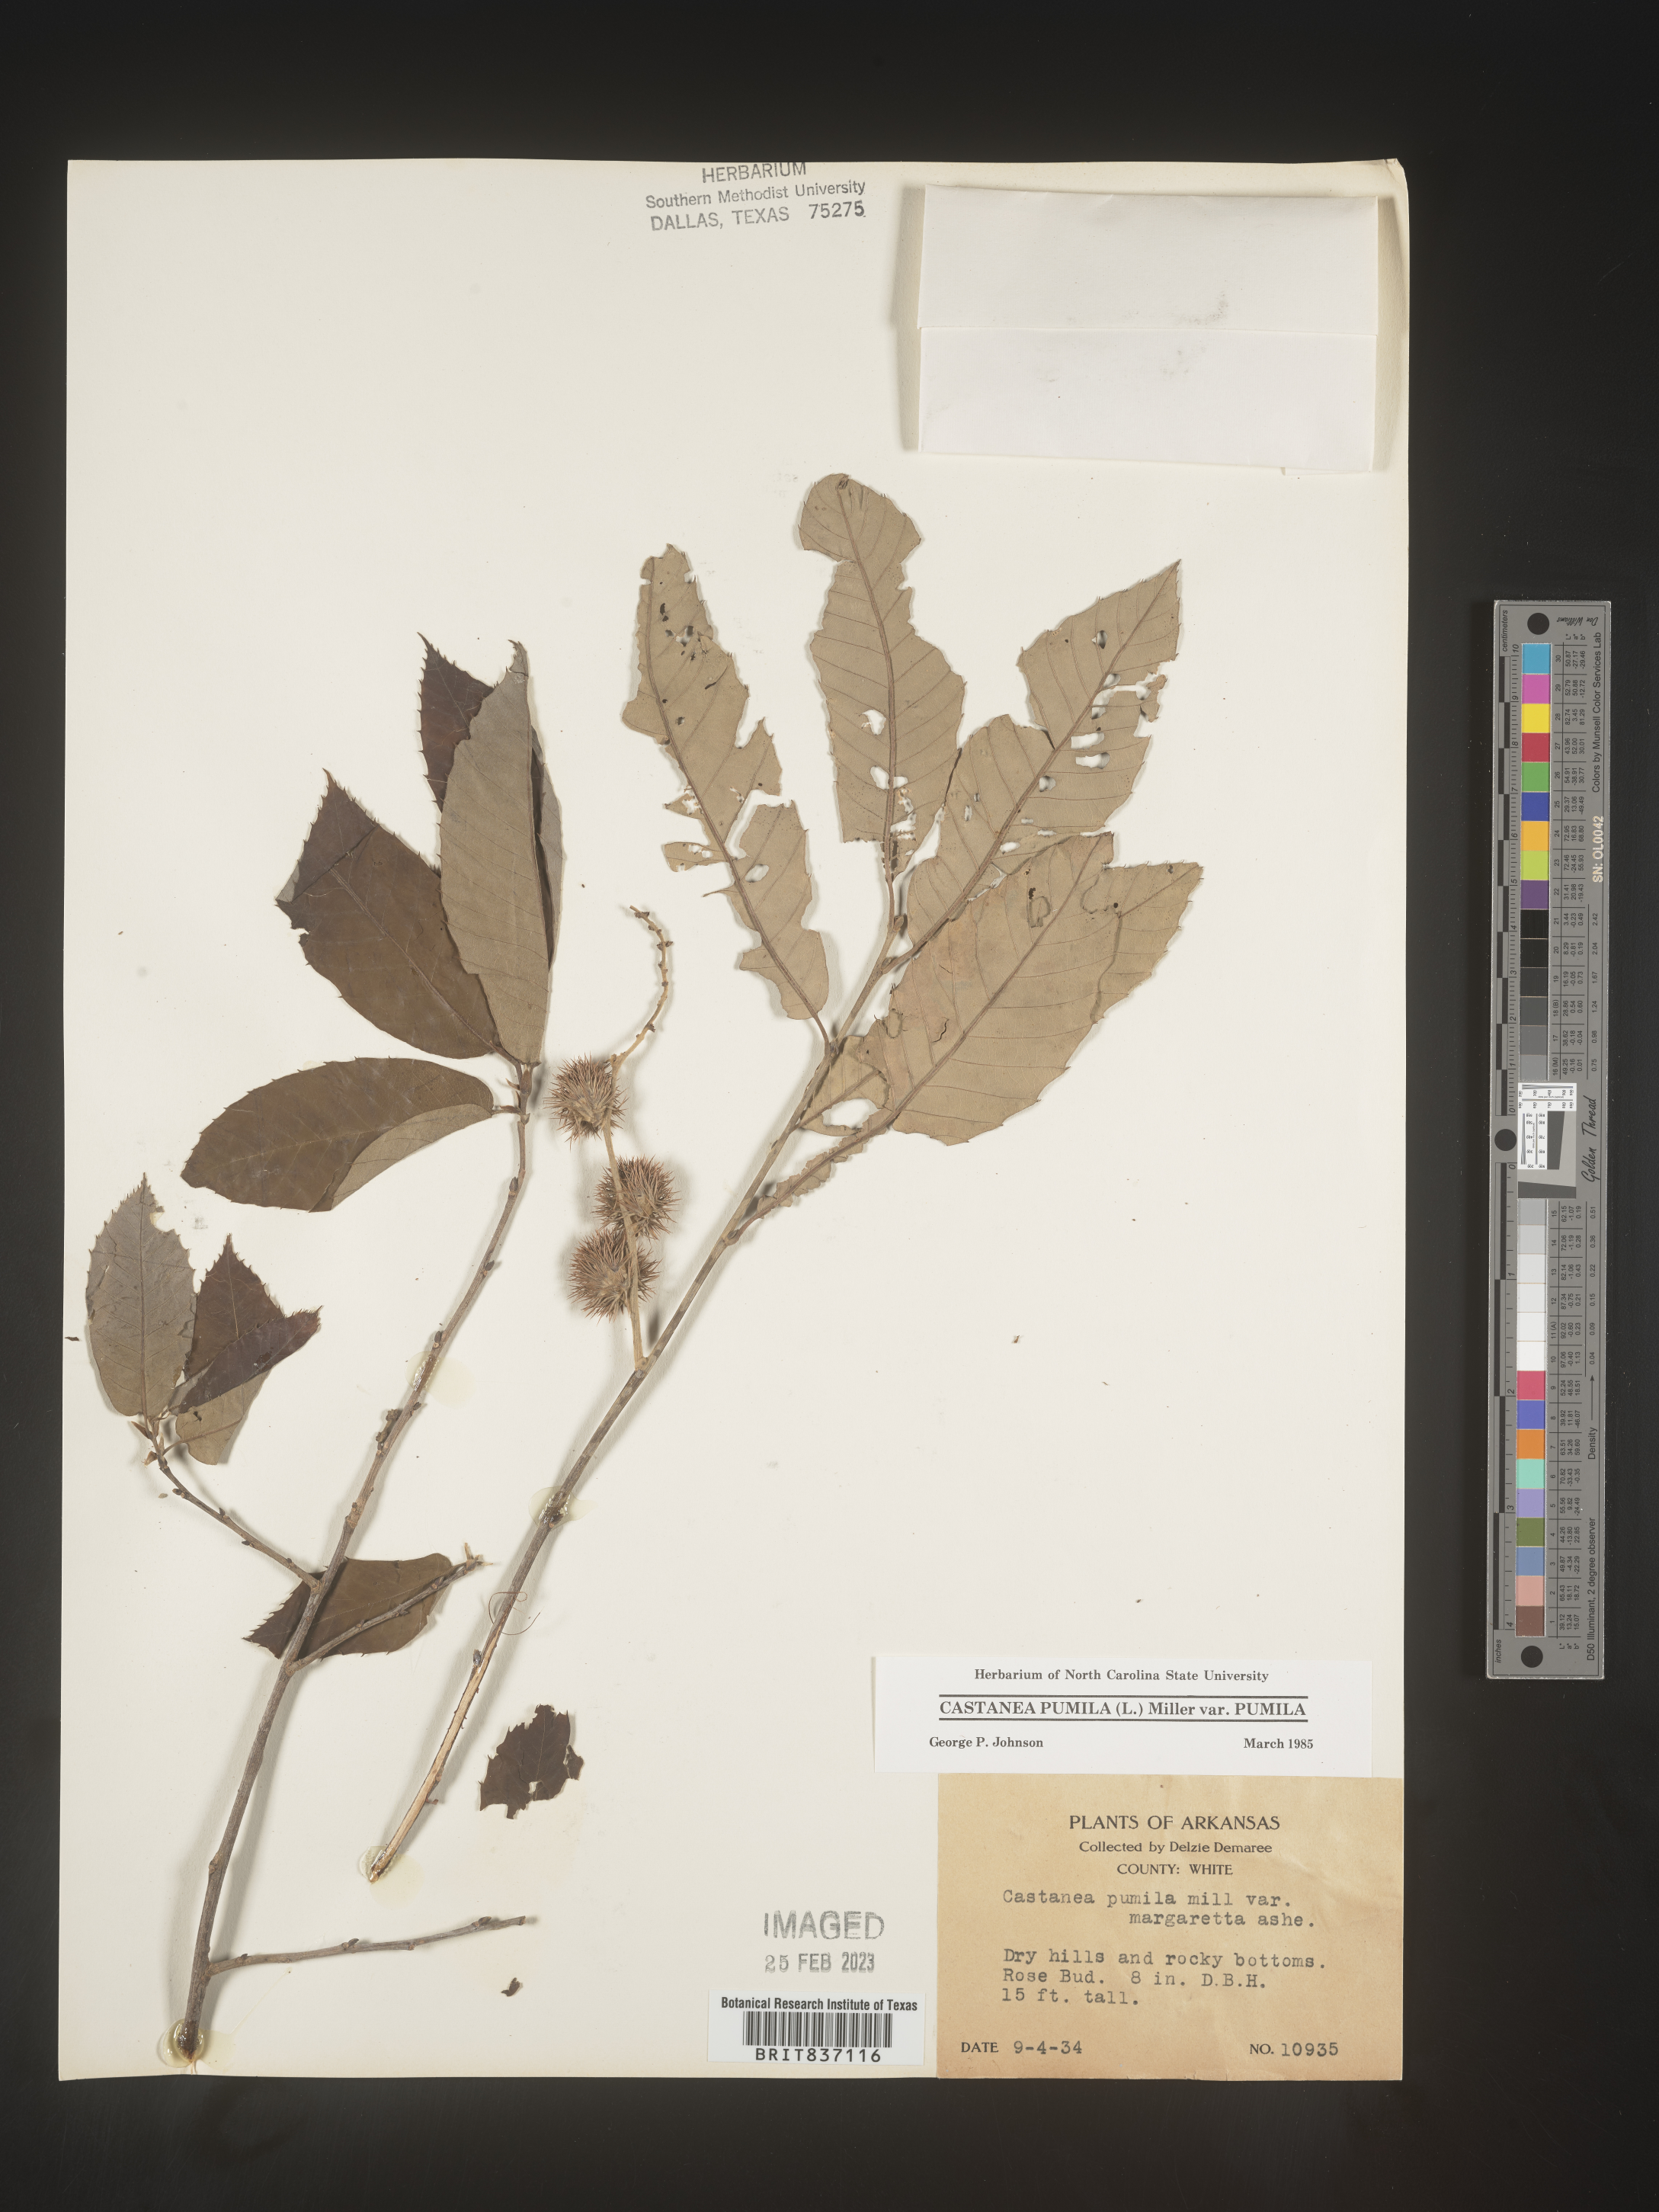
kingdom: Plantae
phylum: Tracheophyta
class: Magnoliopsida
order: Fagales
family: Fagaceae
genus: Castanea
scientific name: Castanea pumila
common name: Chinkapin
